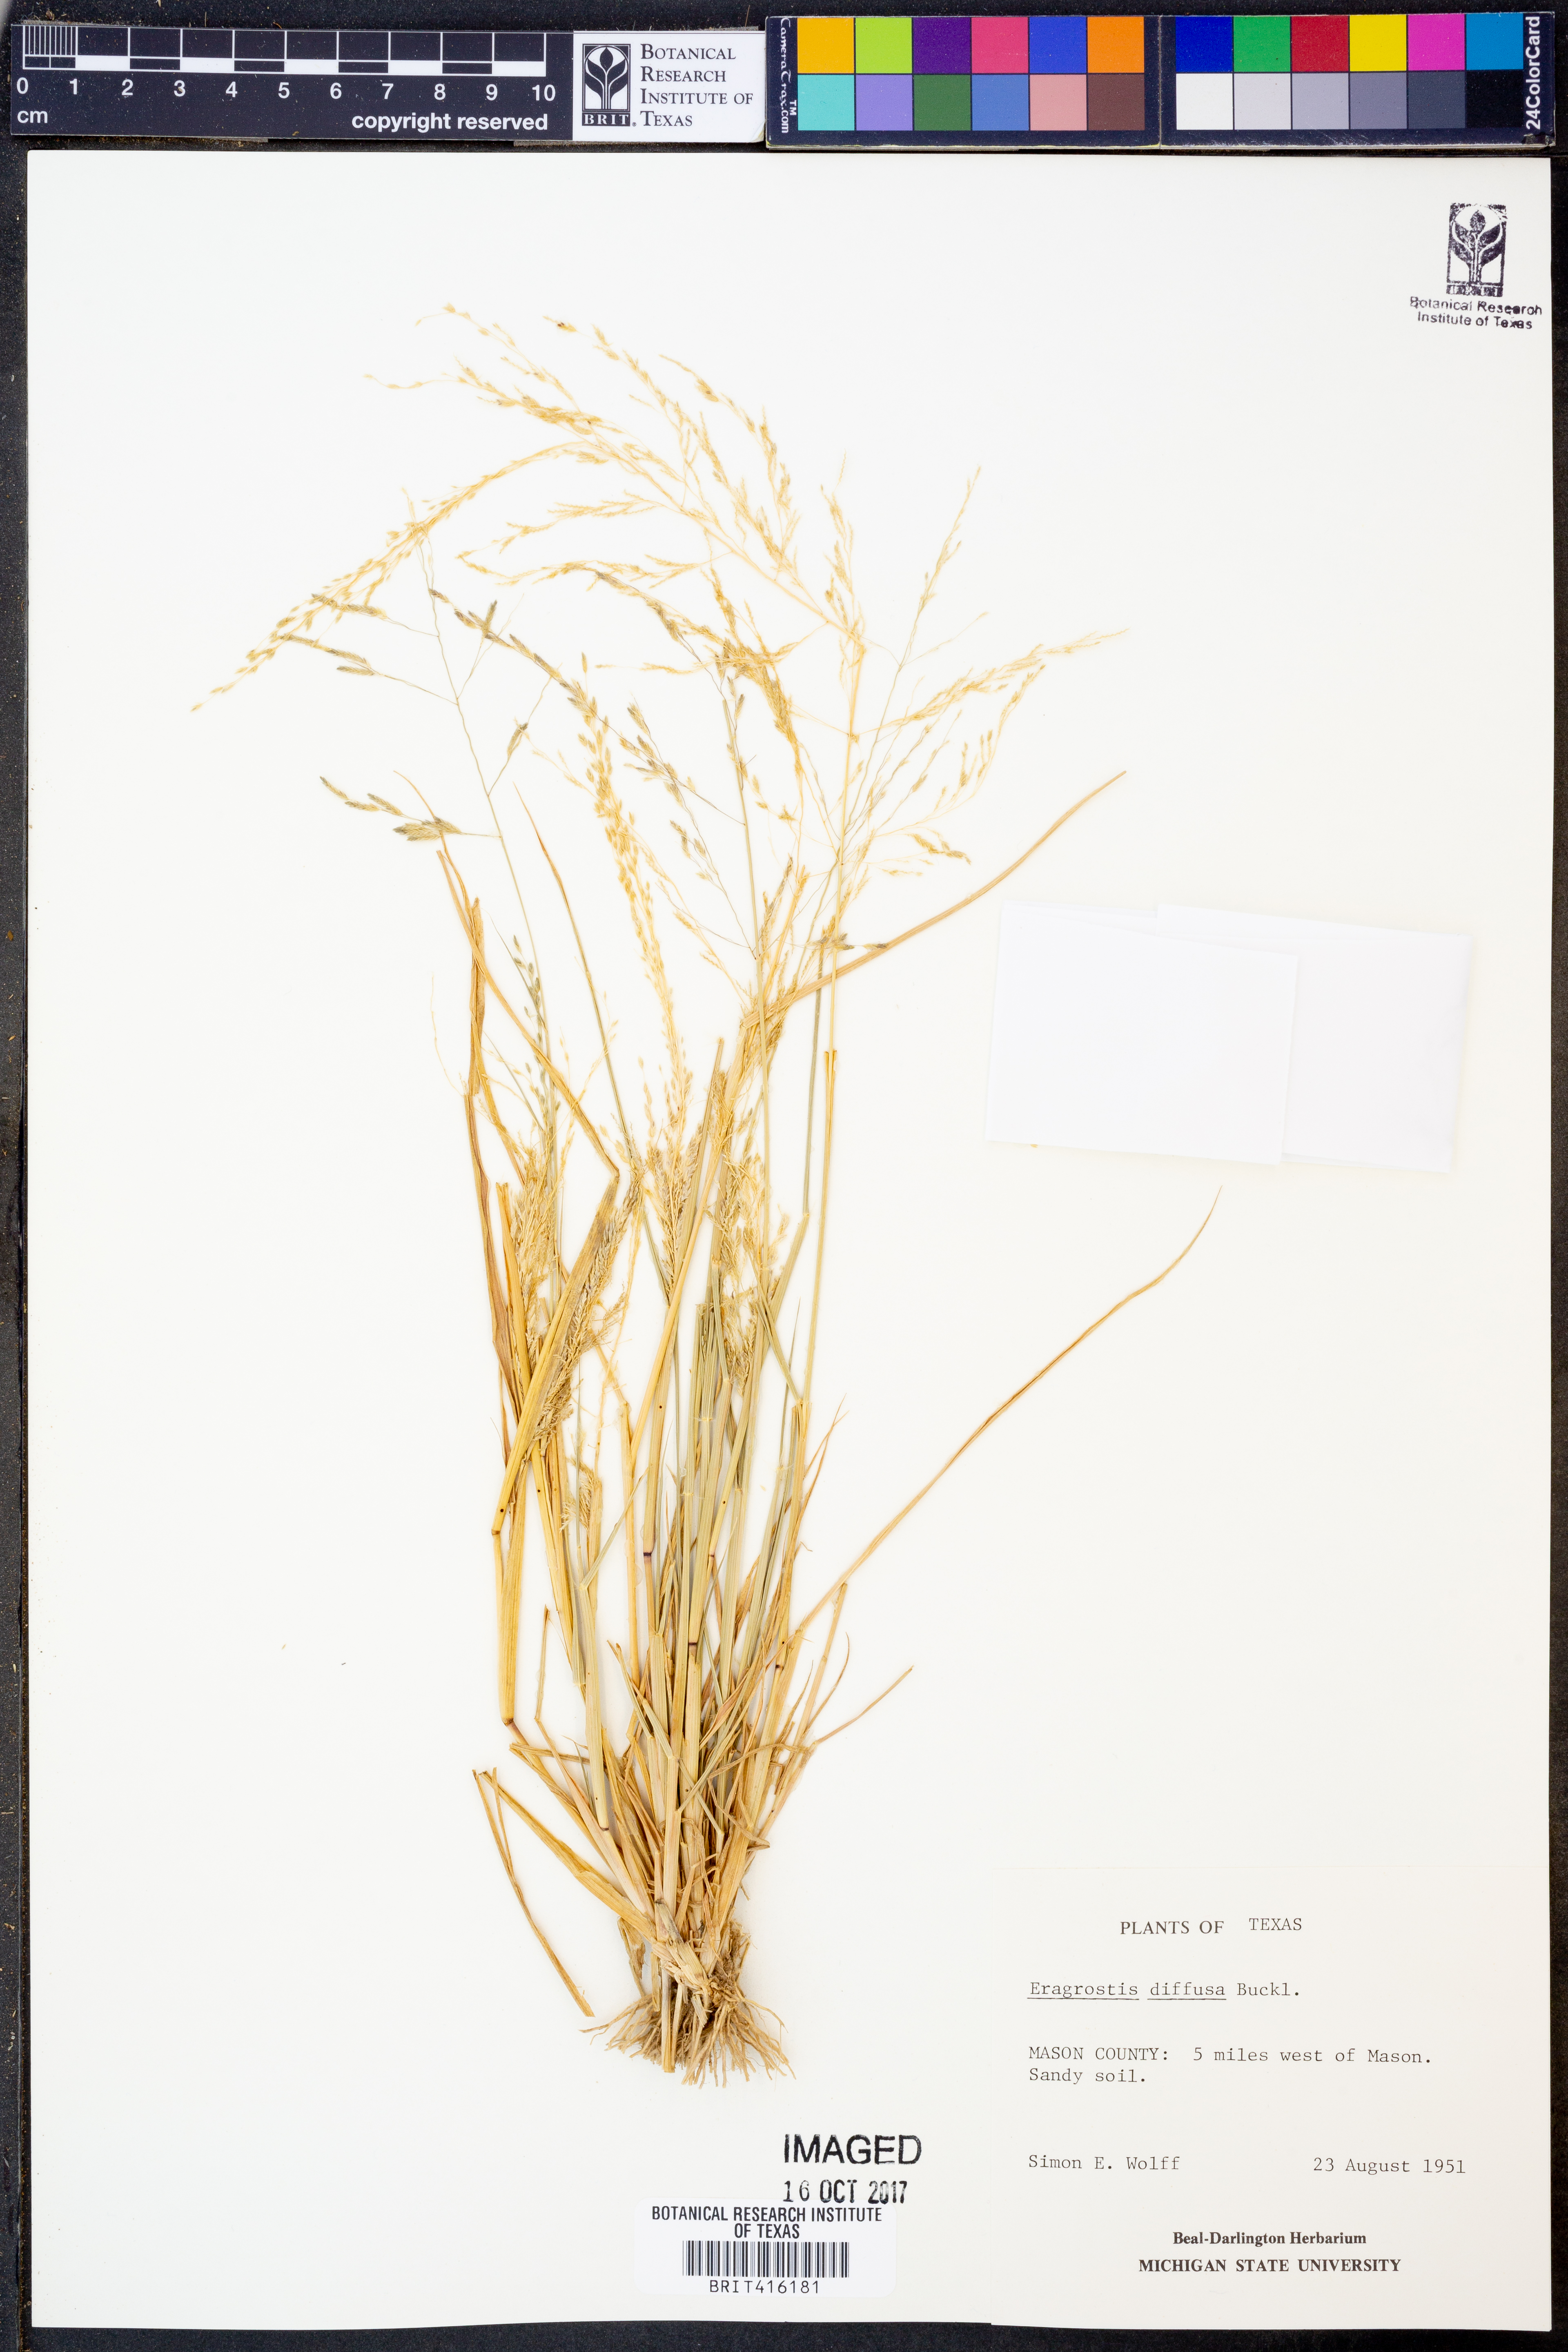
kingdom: Plantae
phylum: Tracheophyta
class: Liliopsida
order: Poales
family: Poaceae
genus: Eragrostis
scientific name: Eragrostis pectinacea
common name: Tufted lovegrass
